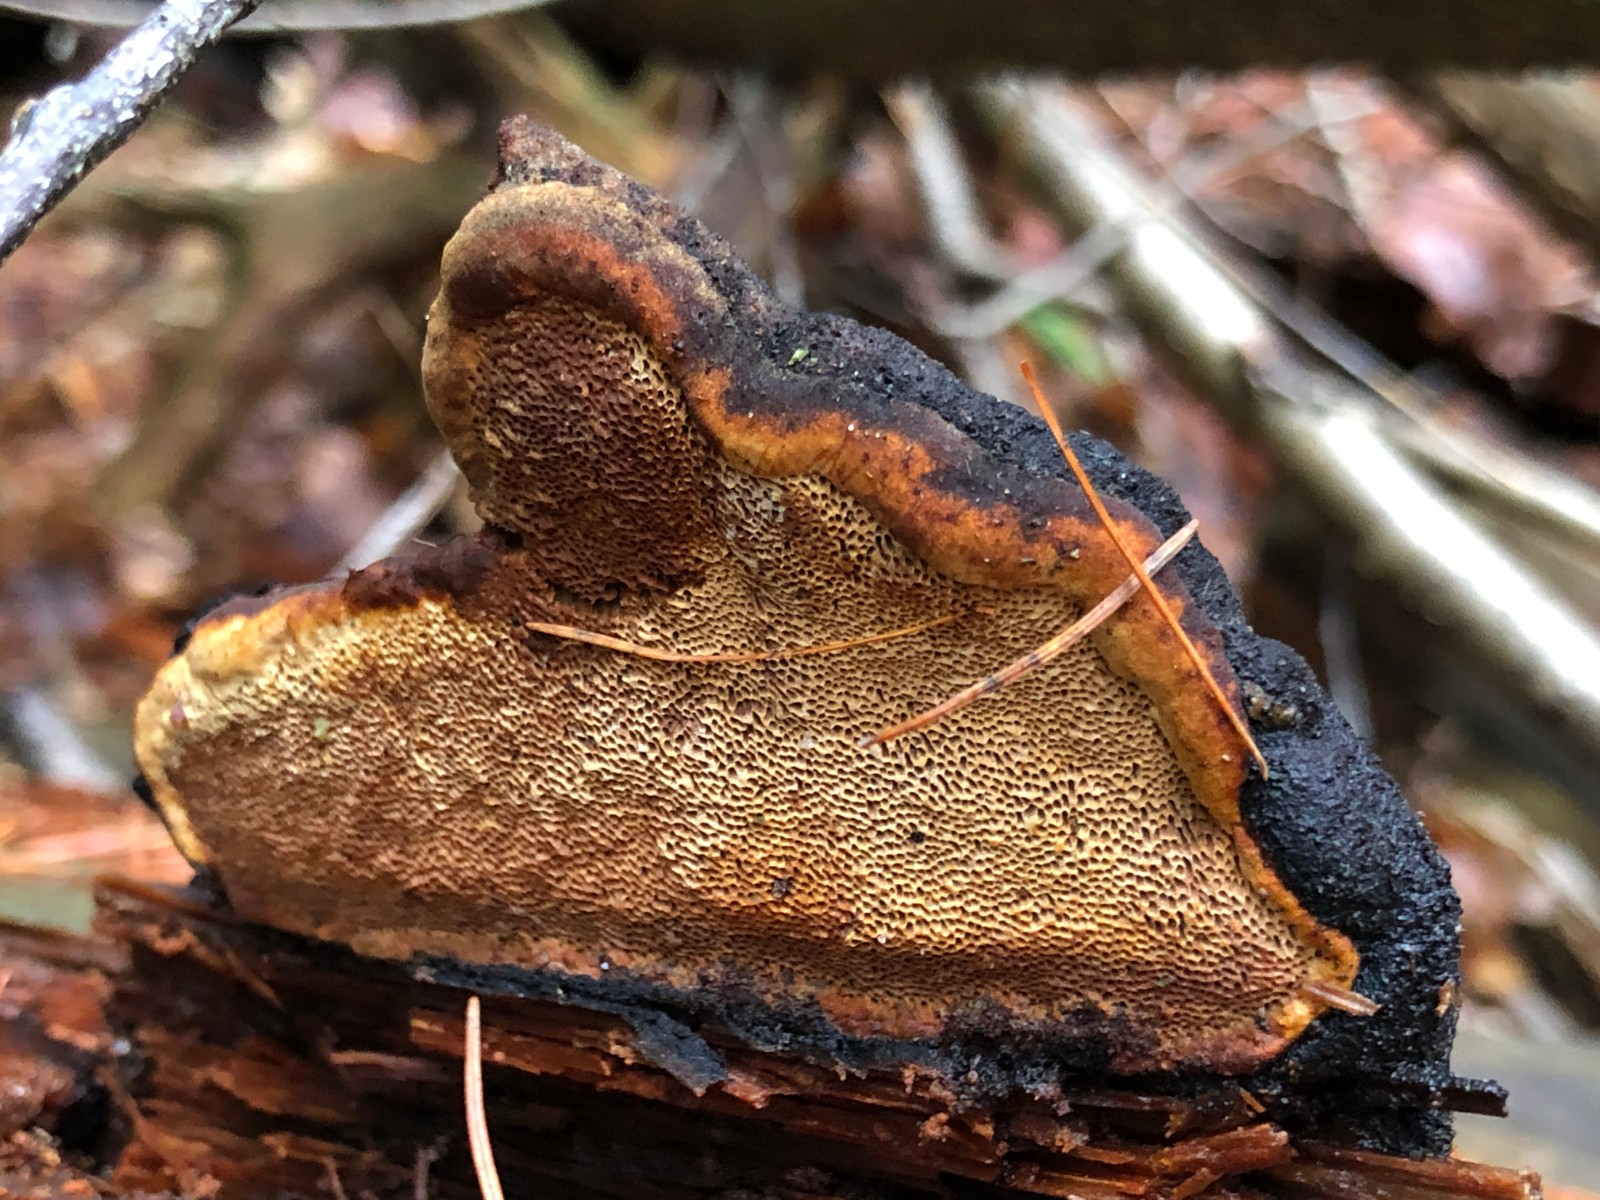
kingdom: Fungi
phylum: Basidiomycota
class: Agaricomycetes
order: Gloeophyllales
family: Gloeophyllaceae
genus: Gloeophyllum
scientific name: Gloeophyllum odoratum
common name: duftende korkhat
